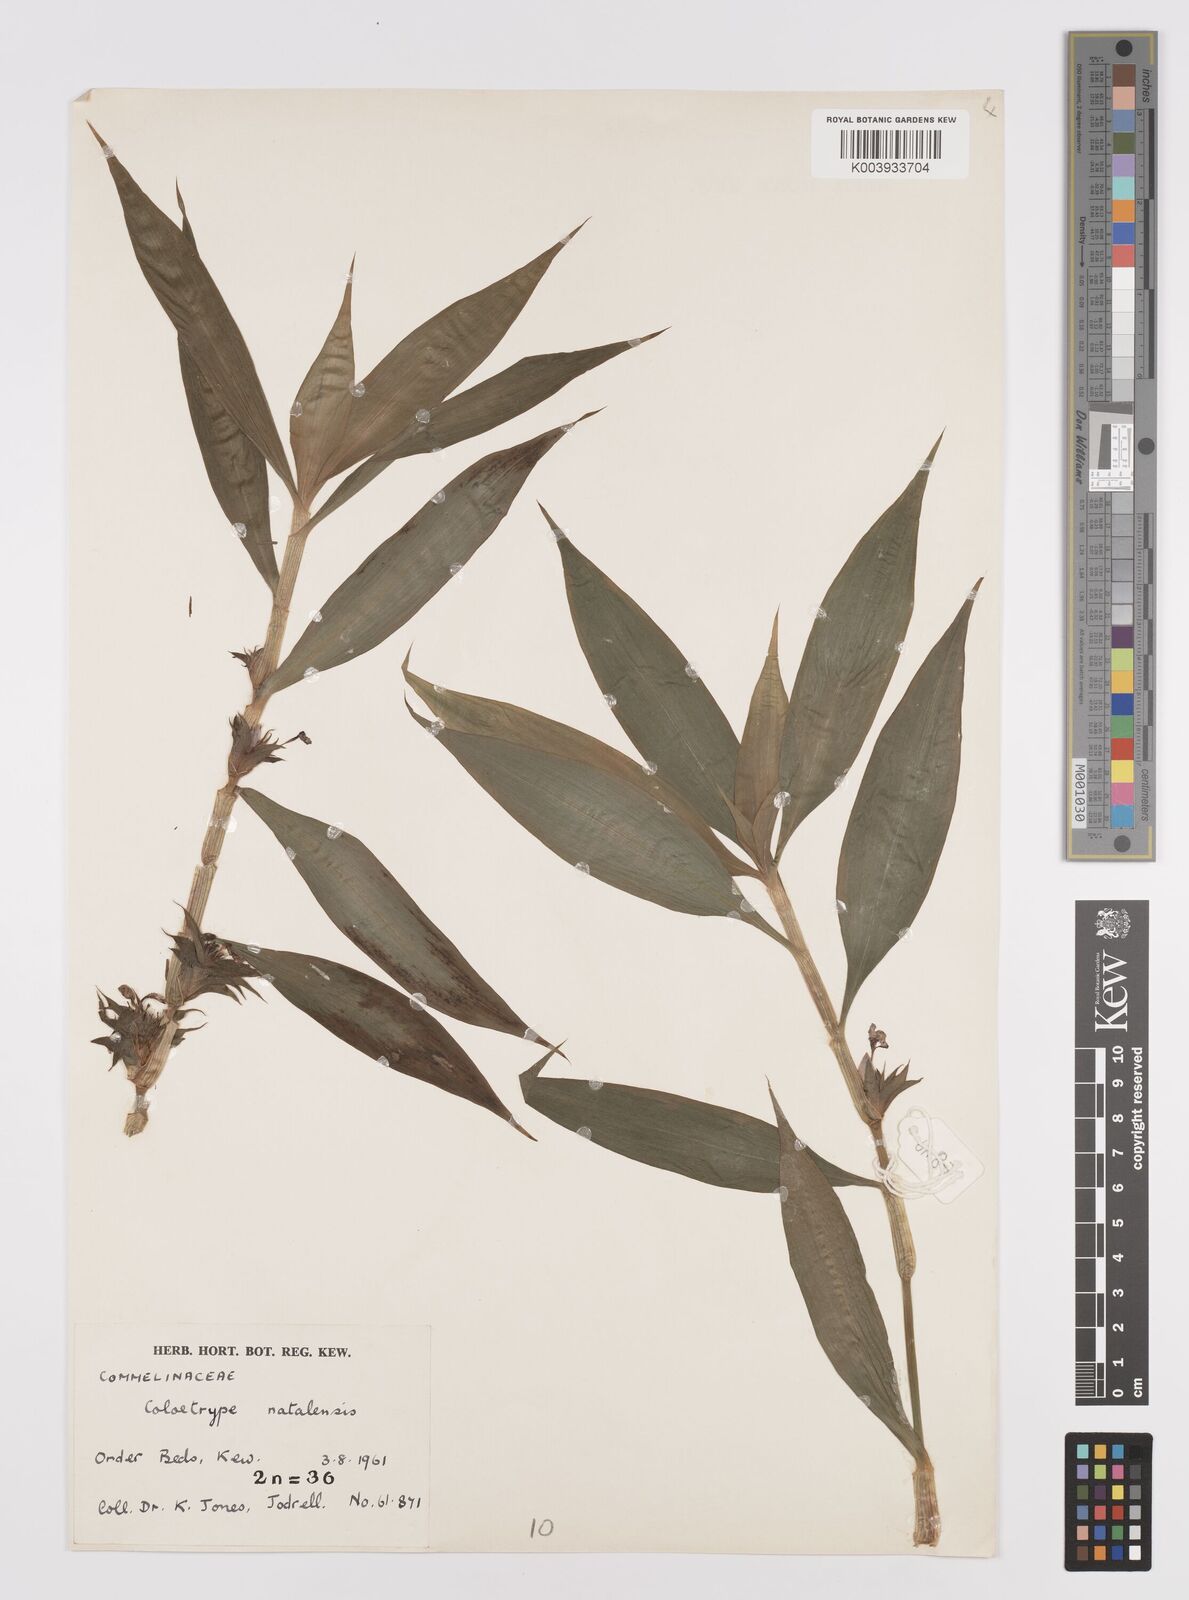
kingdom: Plantae
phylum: Tracheophyta
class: Liliopsida
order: Commelinales
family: Commelinaceae
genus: Coleotrype
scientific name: Coleotrype natalensis
